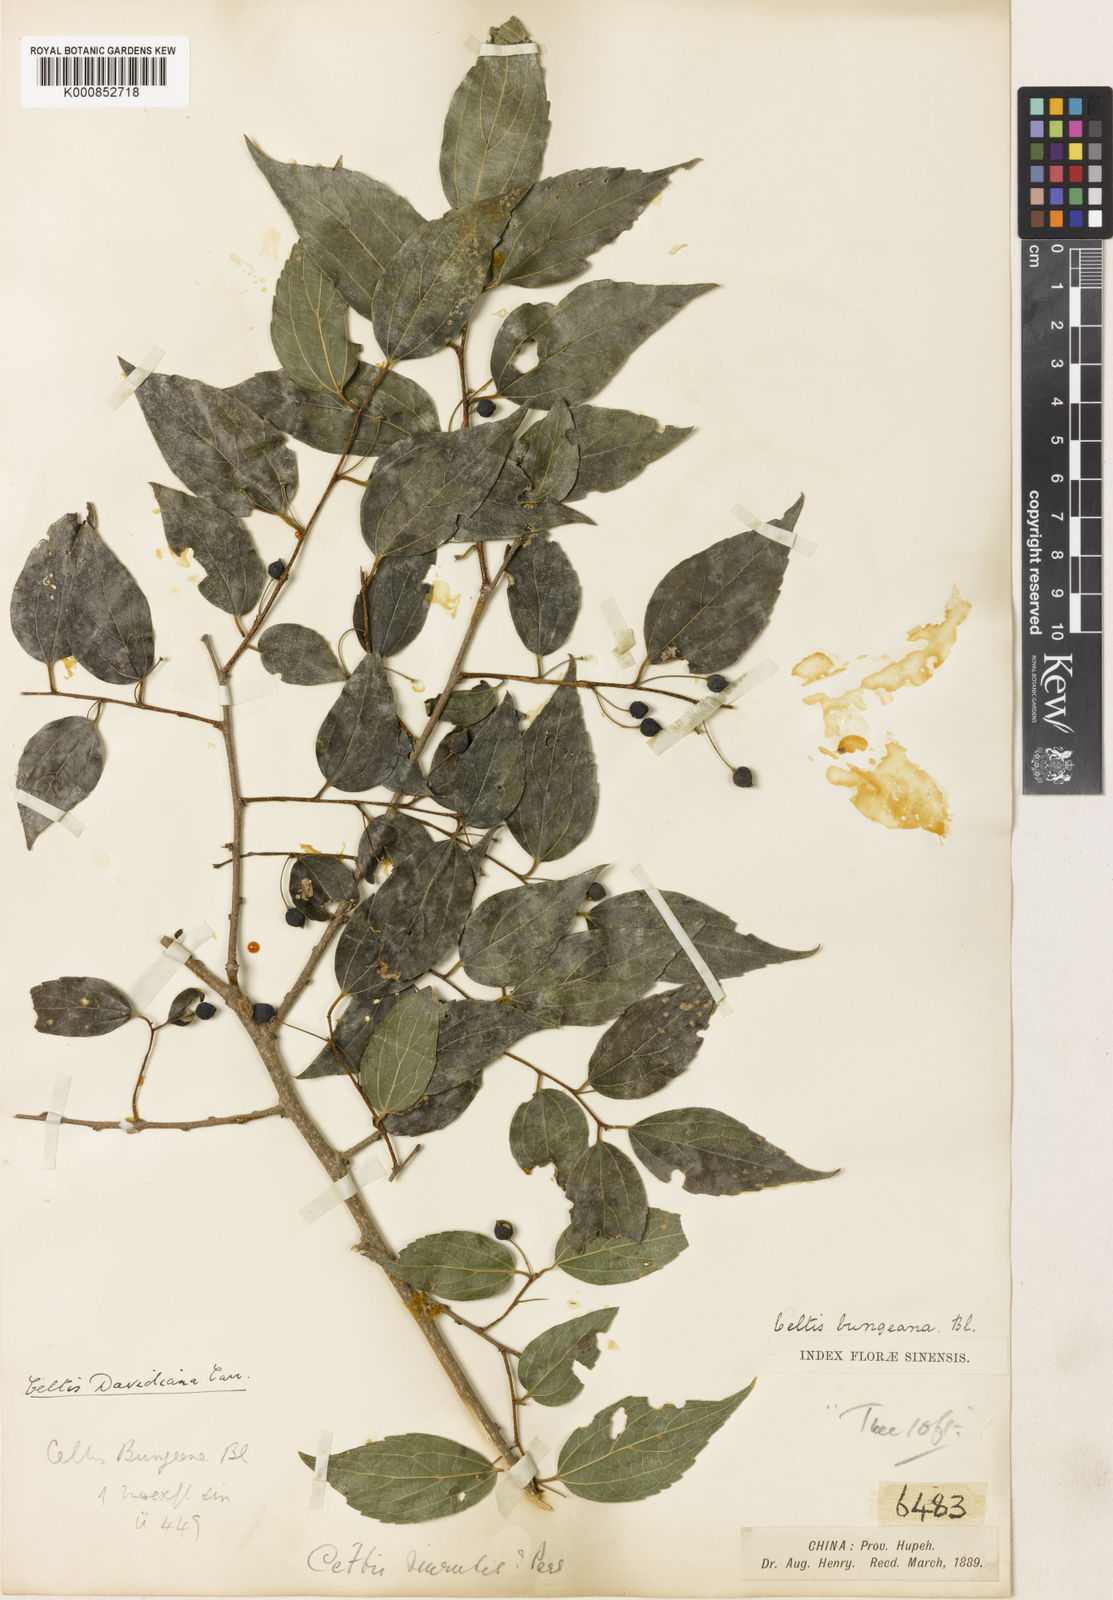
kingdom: Plantae
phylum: Tracheophyta
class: Magnoliopsida
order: Rosales
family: Cannabaceae
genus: Celtis
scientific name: Celtis bungeana
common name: Bunge's hackberry
